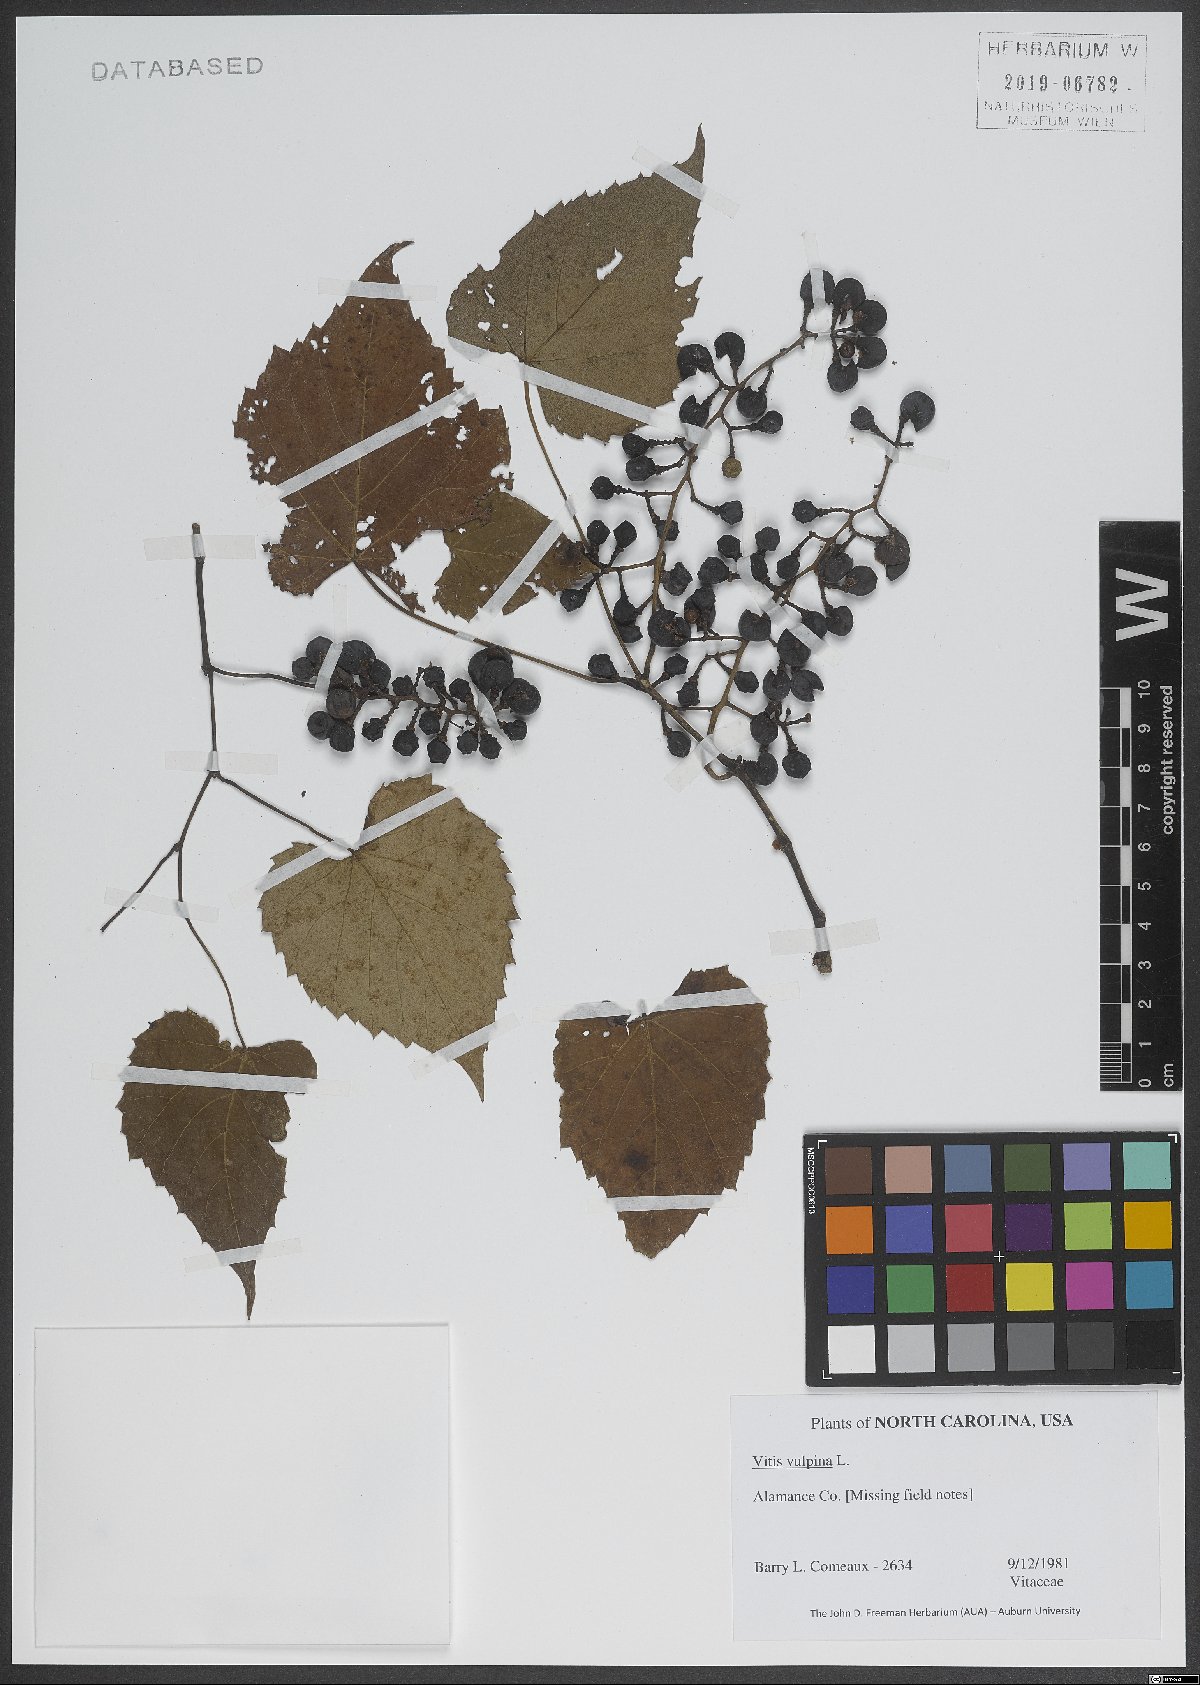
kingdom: Plantae
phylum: Tracheophyta
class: Magnoliopsida
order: Vitales
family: Vitaceae
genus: Vitis
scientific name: Vitis vulpina
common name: Frost grape
